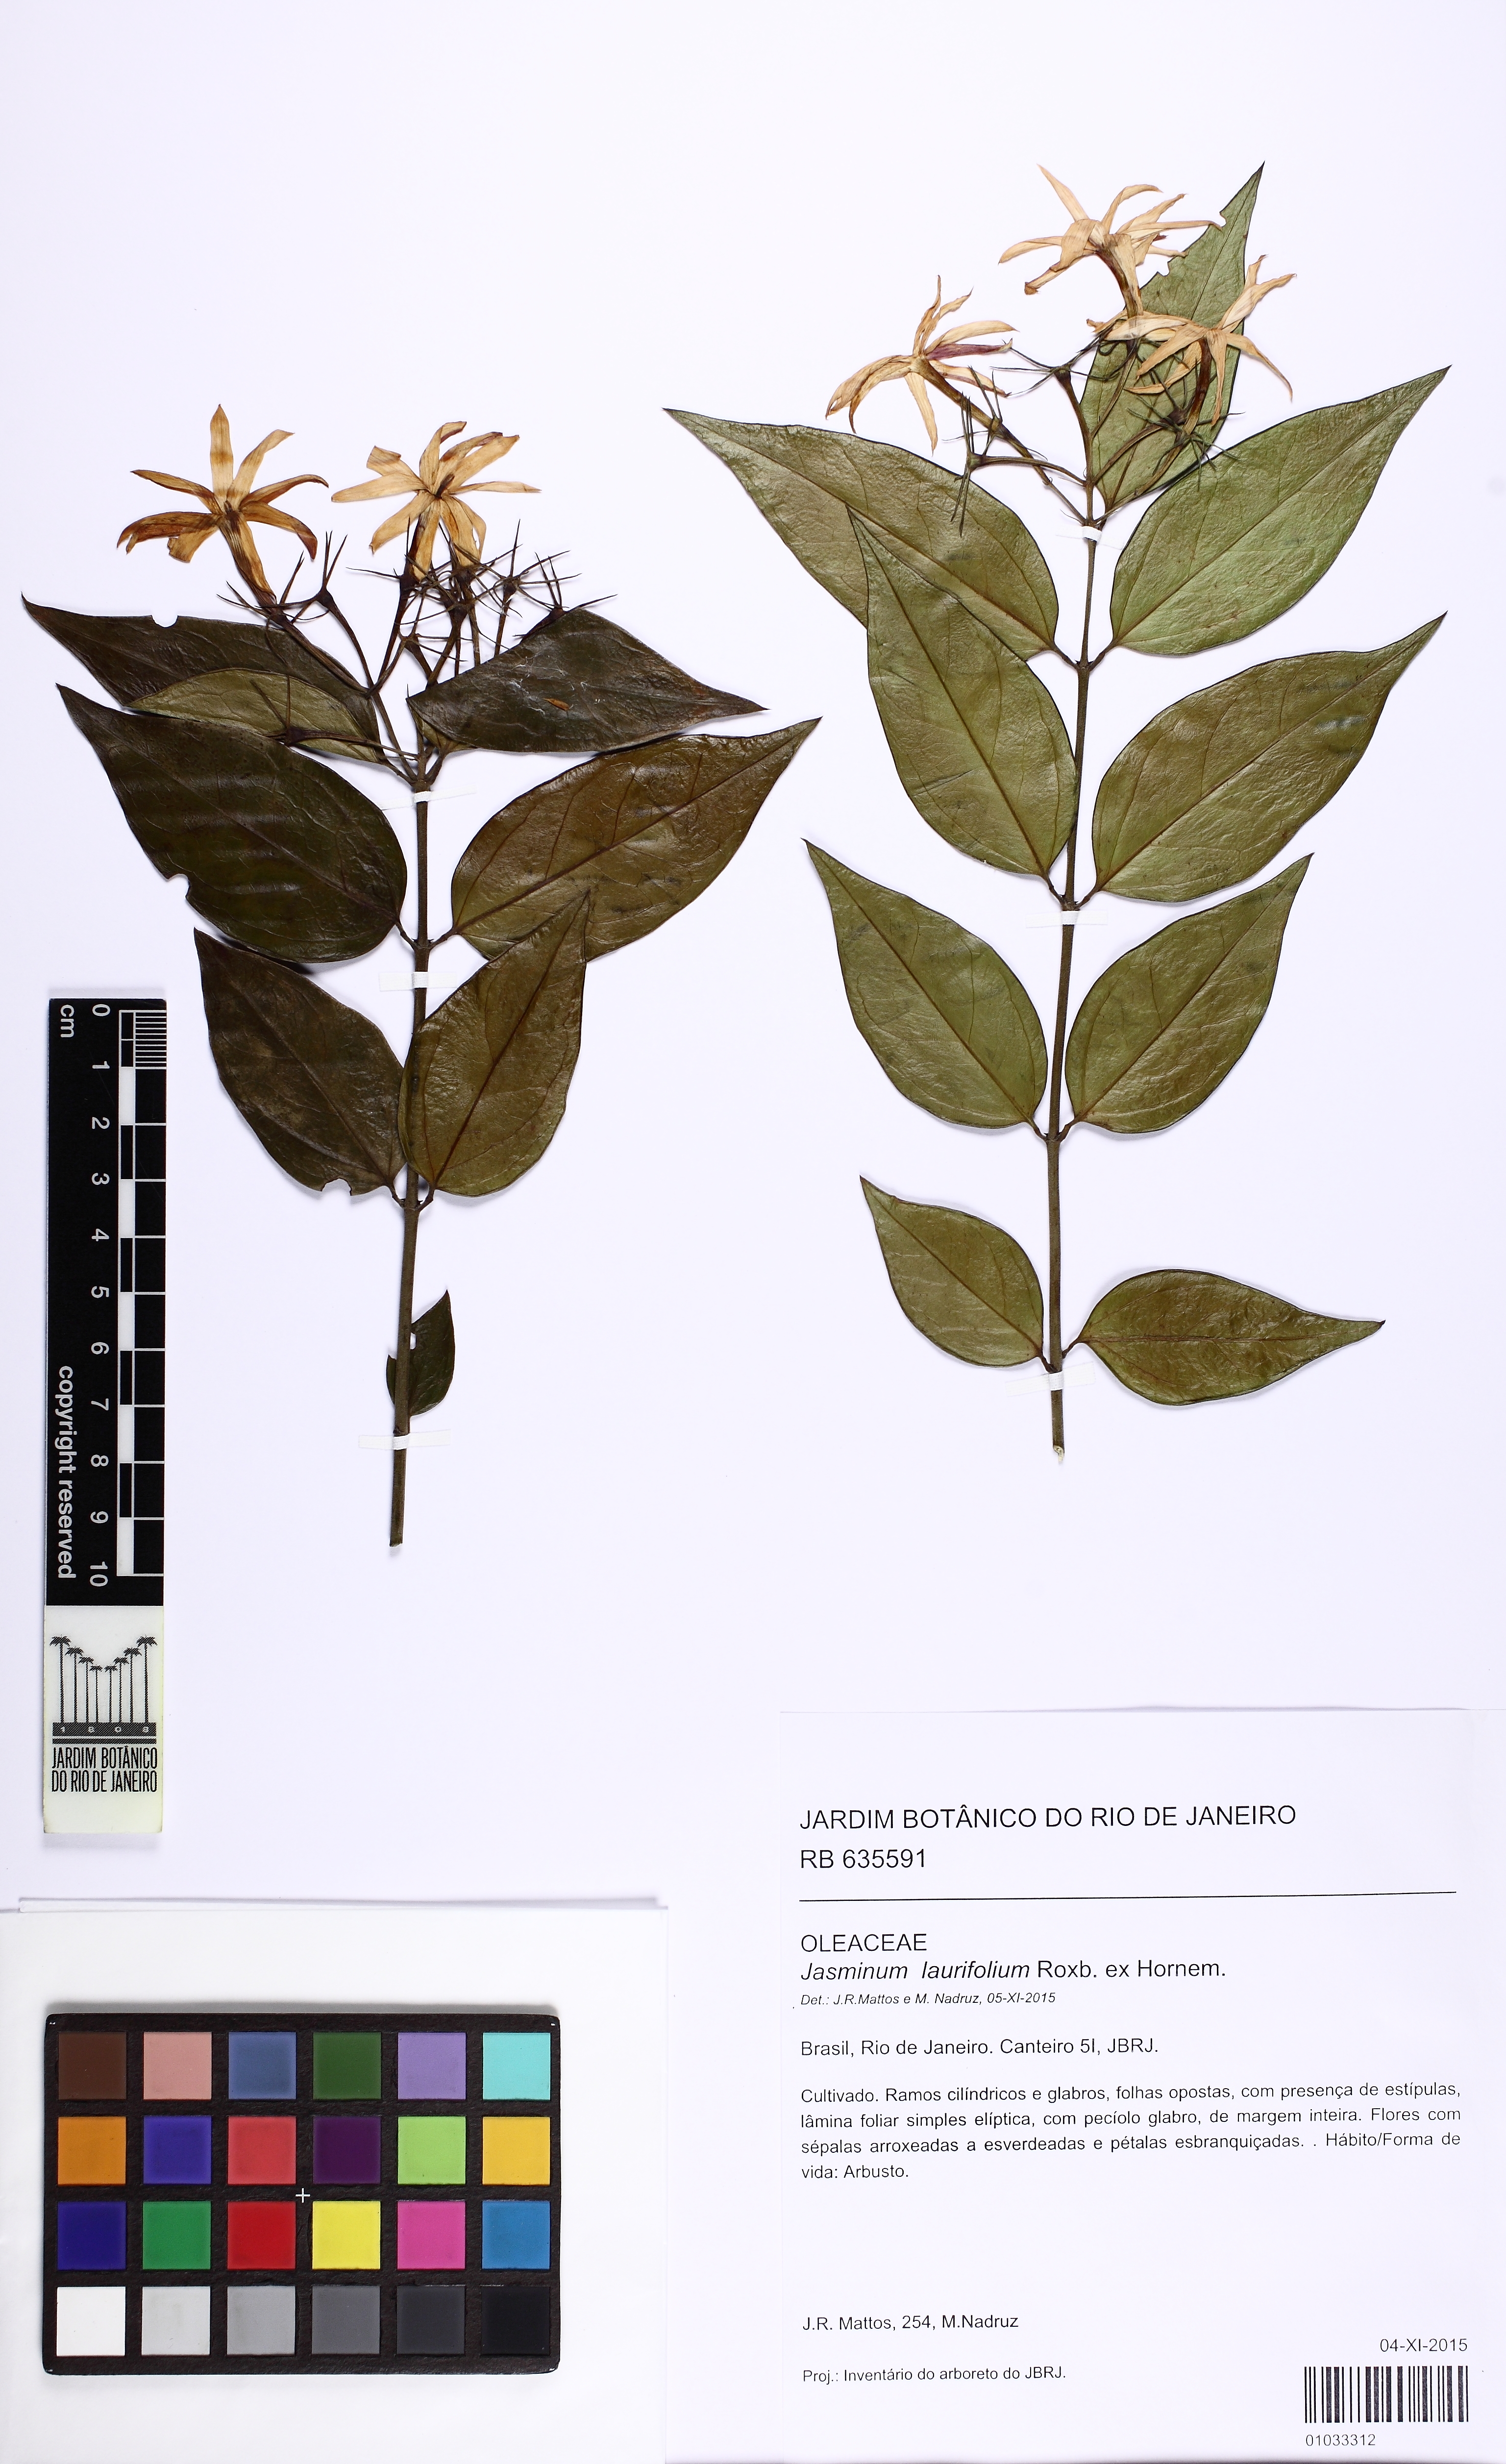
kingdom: Plantae
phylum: Tracheophyta
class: Magnoliopsida
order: Lamiales
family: Oleaceae
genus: Jasminum
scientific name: Jasminum laurifolium
